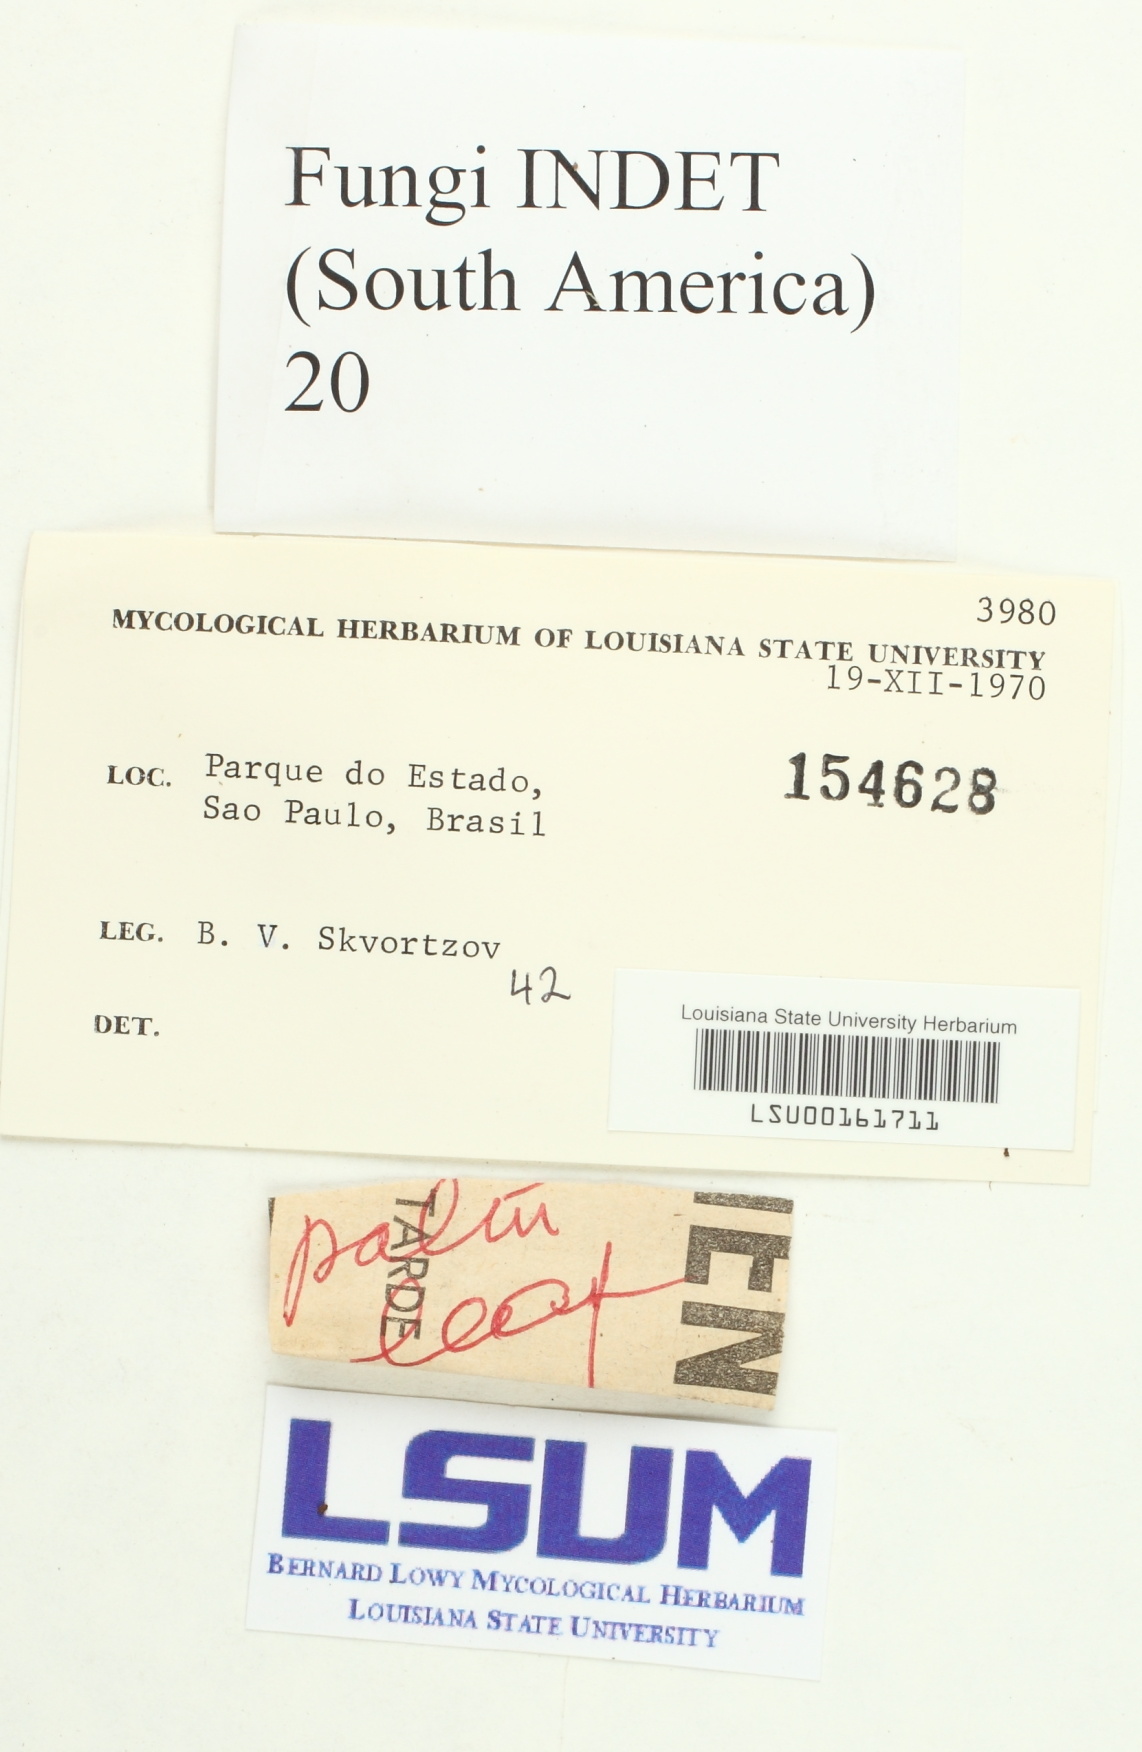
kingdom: Fungi
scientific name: Fungi
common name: Fungi
